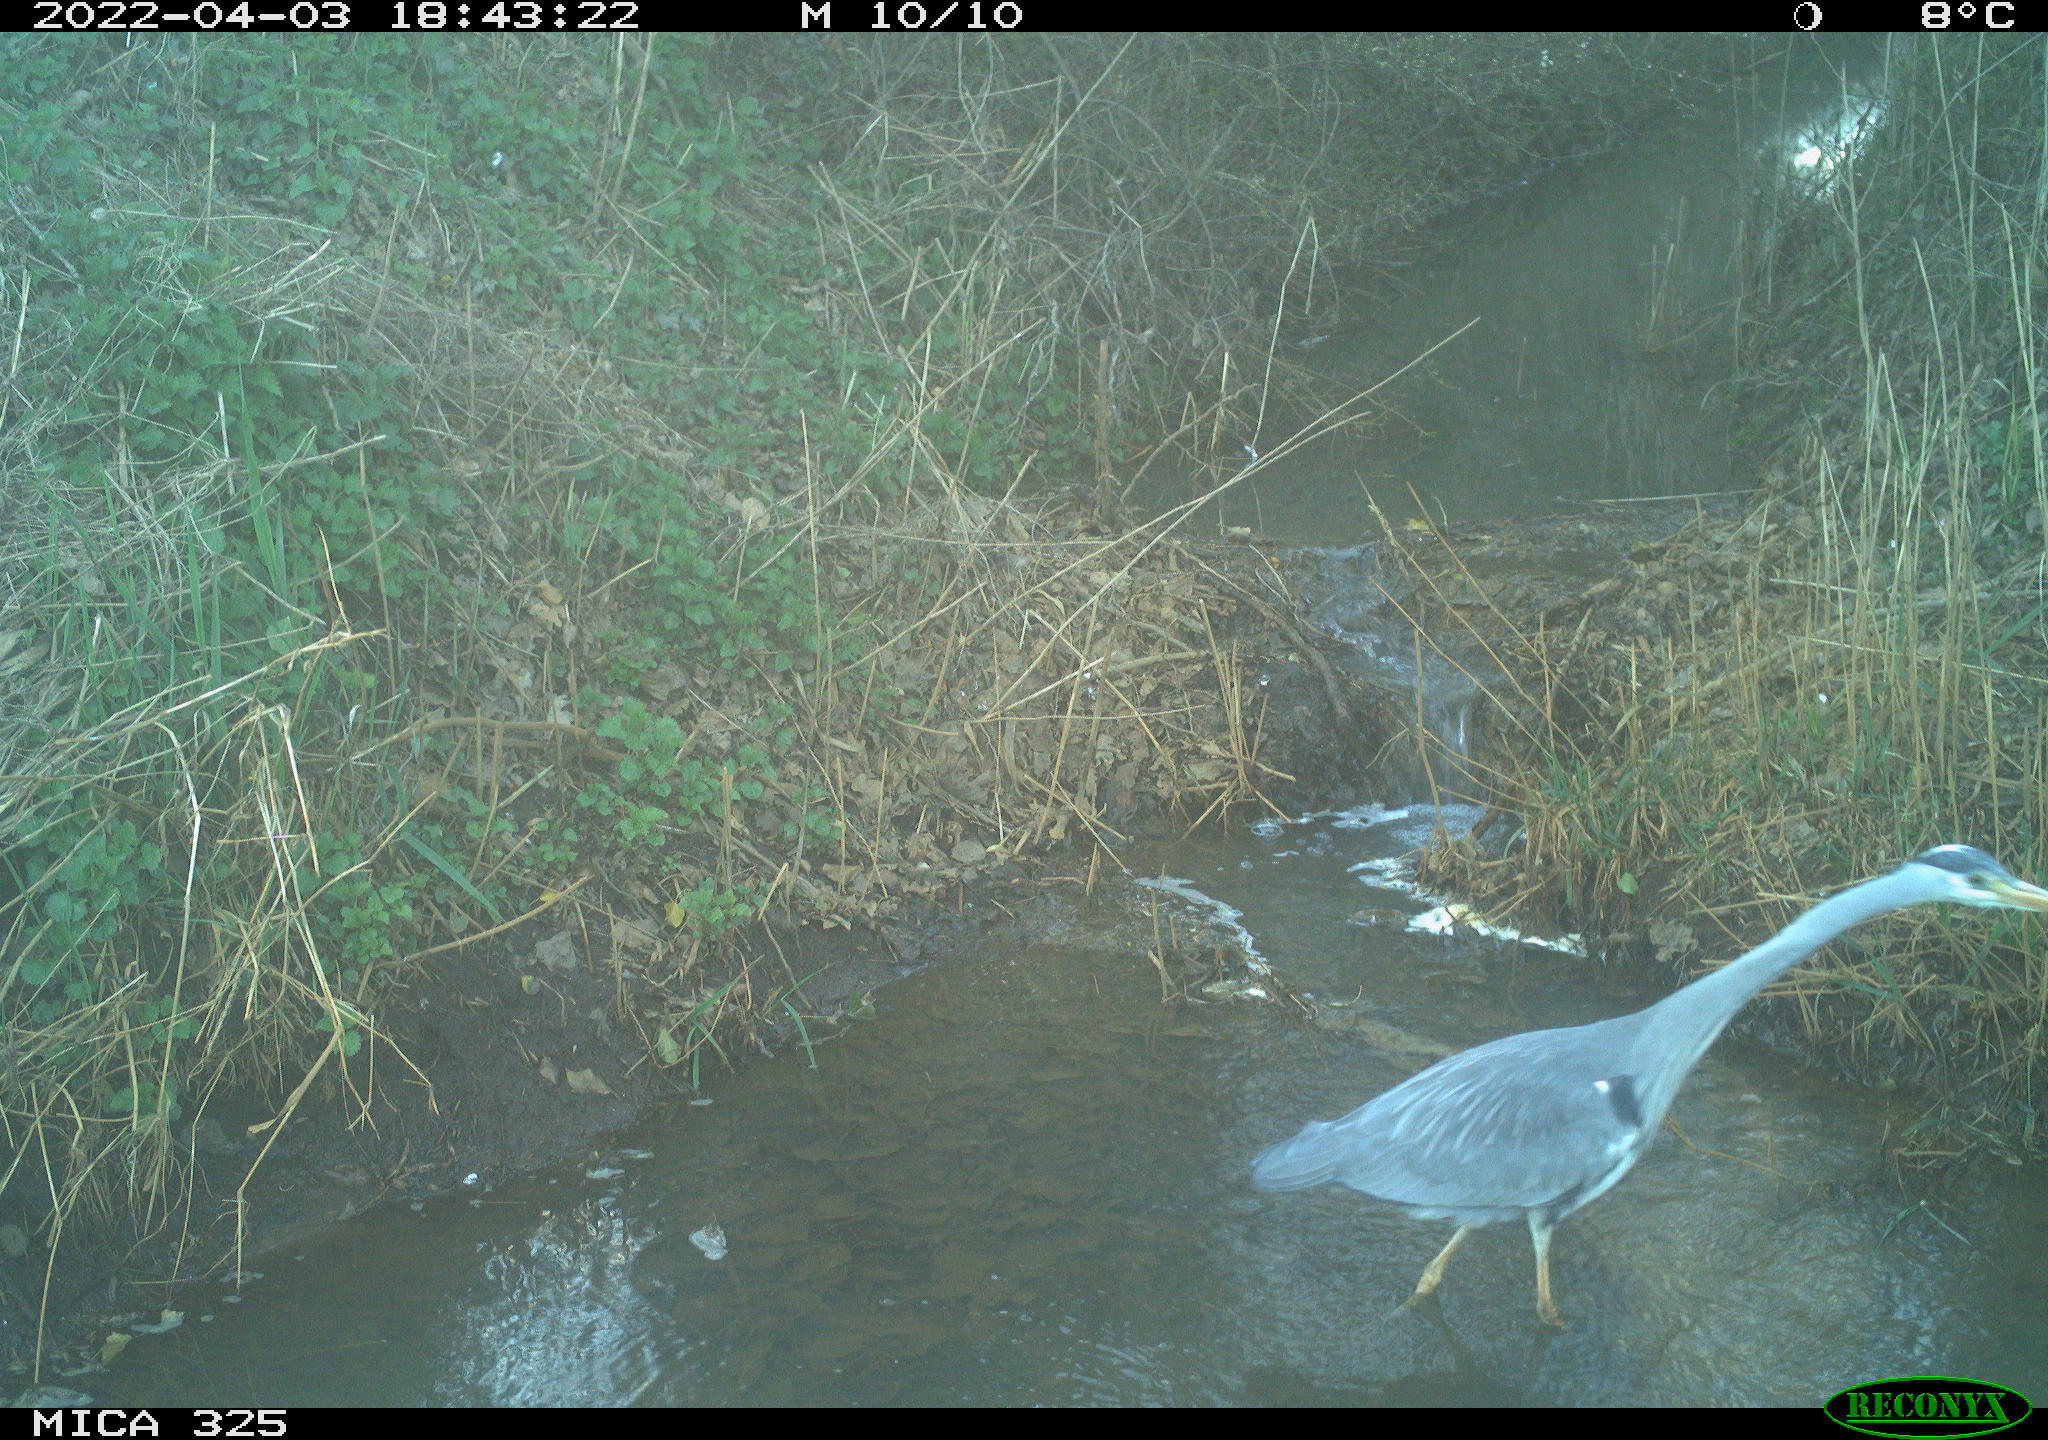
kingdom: Animalia
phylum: Chordata
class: Aves
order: Pelecaniformes
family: Ardeidae
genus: Ardea
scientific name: Ardea
